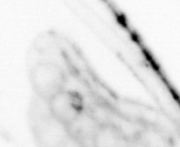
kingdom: Animalia
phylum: Chaetognatha
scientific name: Chaetognatha
